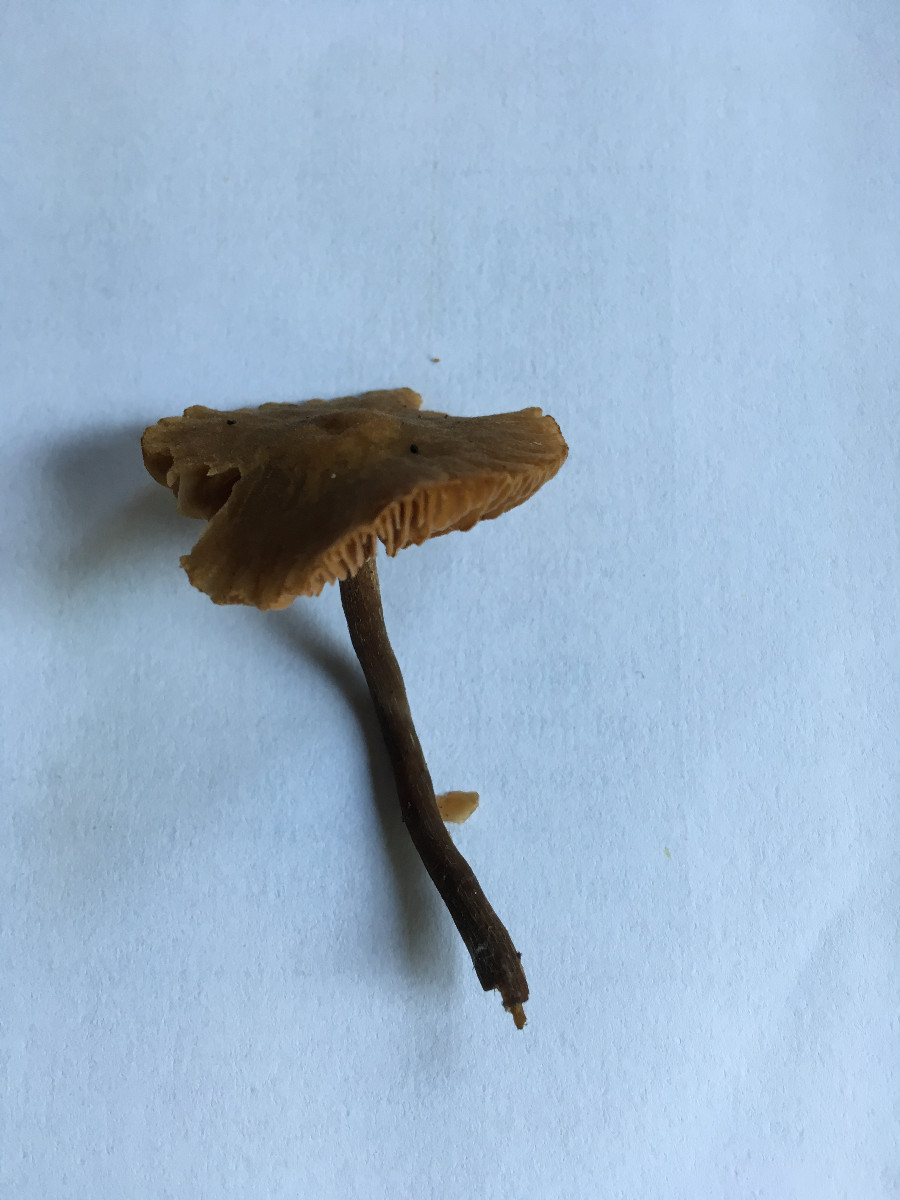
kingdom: Fungi
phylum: Basidiomycota
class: Agaricomycetes
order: Agaricales
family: Hymenogastraceae
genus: Naucoria
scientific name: Naucoria scolecina
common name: mørk elle-knaphat
